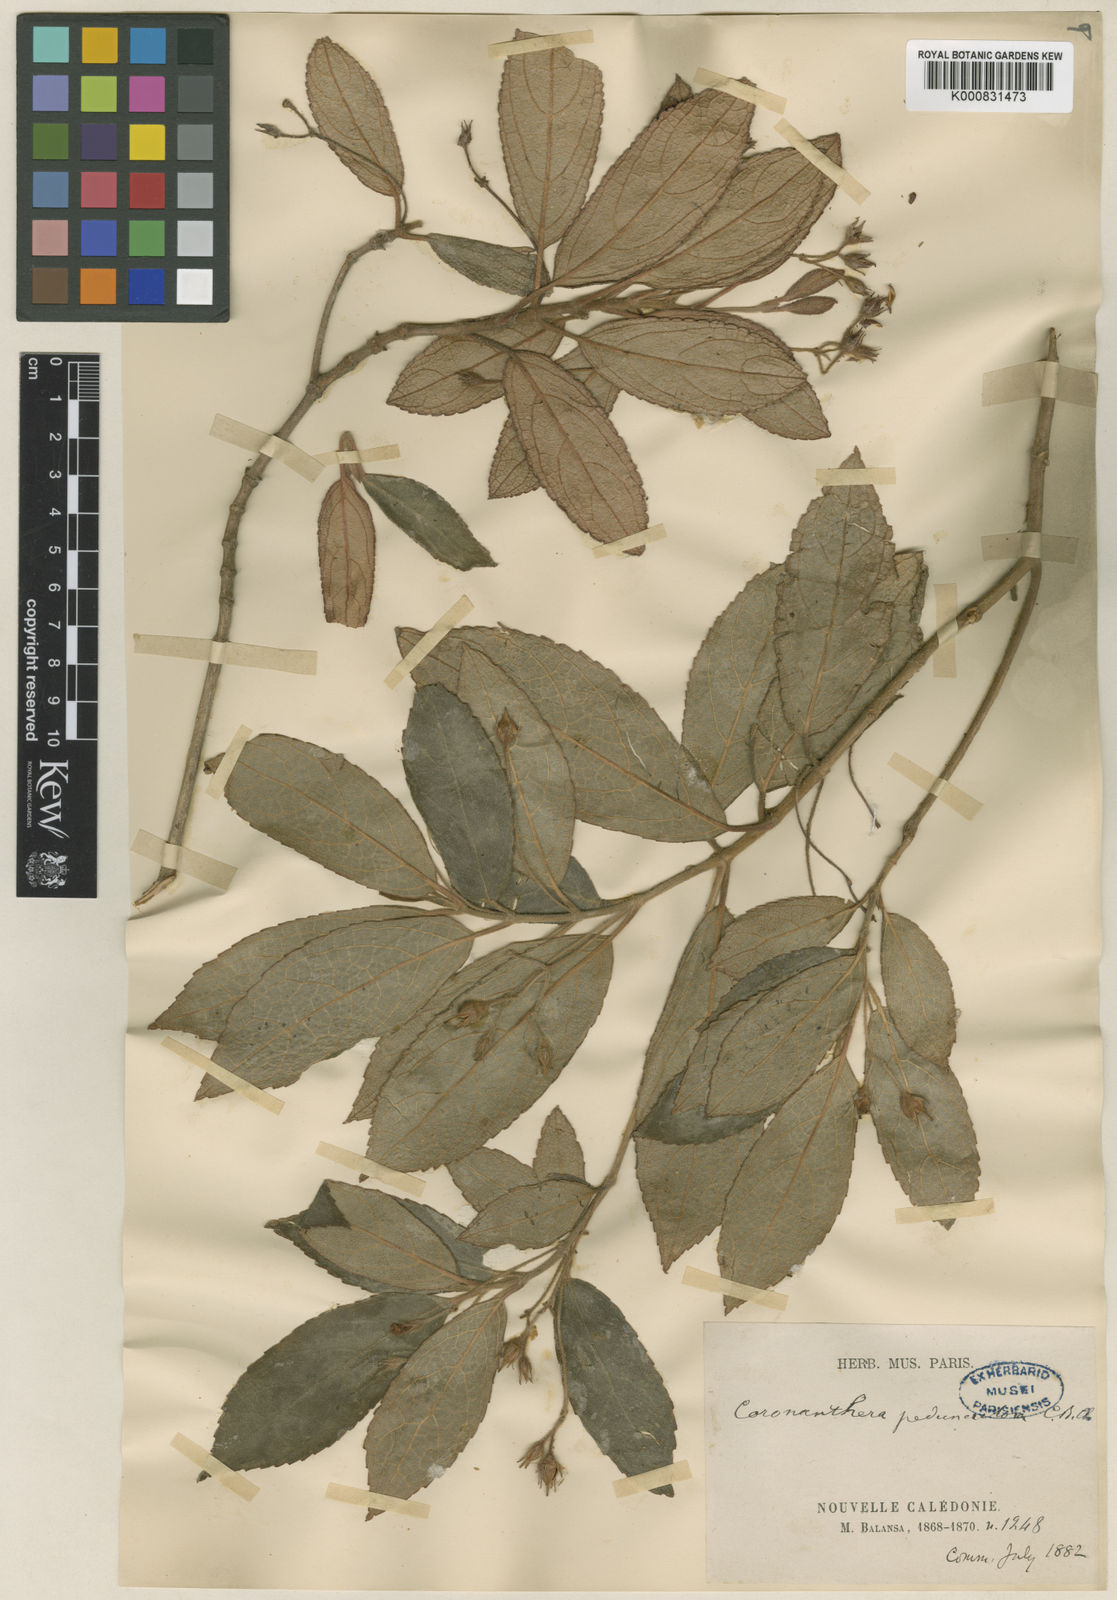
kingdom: Plantae
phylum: Tracheophyta
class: Magnoliopsida
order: Lamiales
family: Gesneriaceae
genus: Coronanthera
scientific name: Coronanthera pedunculosa
